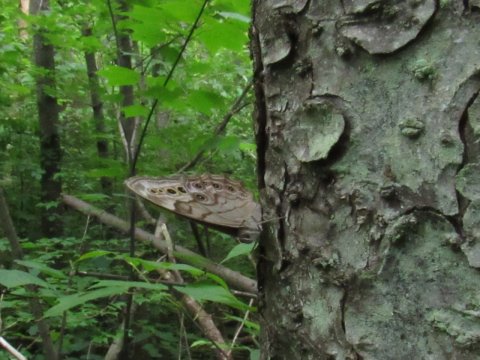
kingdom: Animalia
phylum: Arthropoda
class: Insecta
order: Lepidoptera
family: Nymphalidae
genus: Lethe
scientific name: Lethe anthedon
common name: Northern Pearly-Eye
